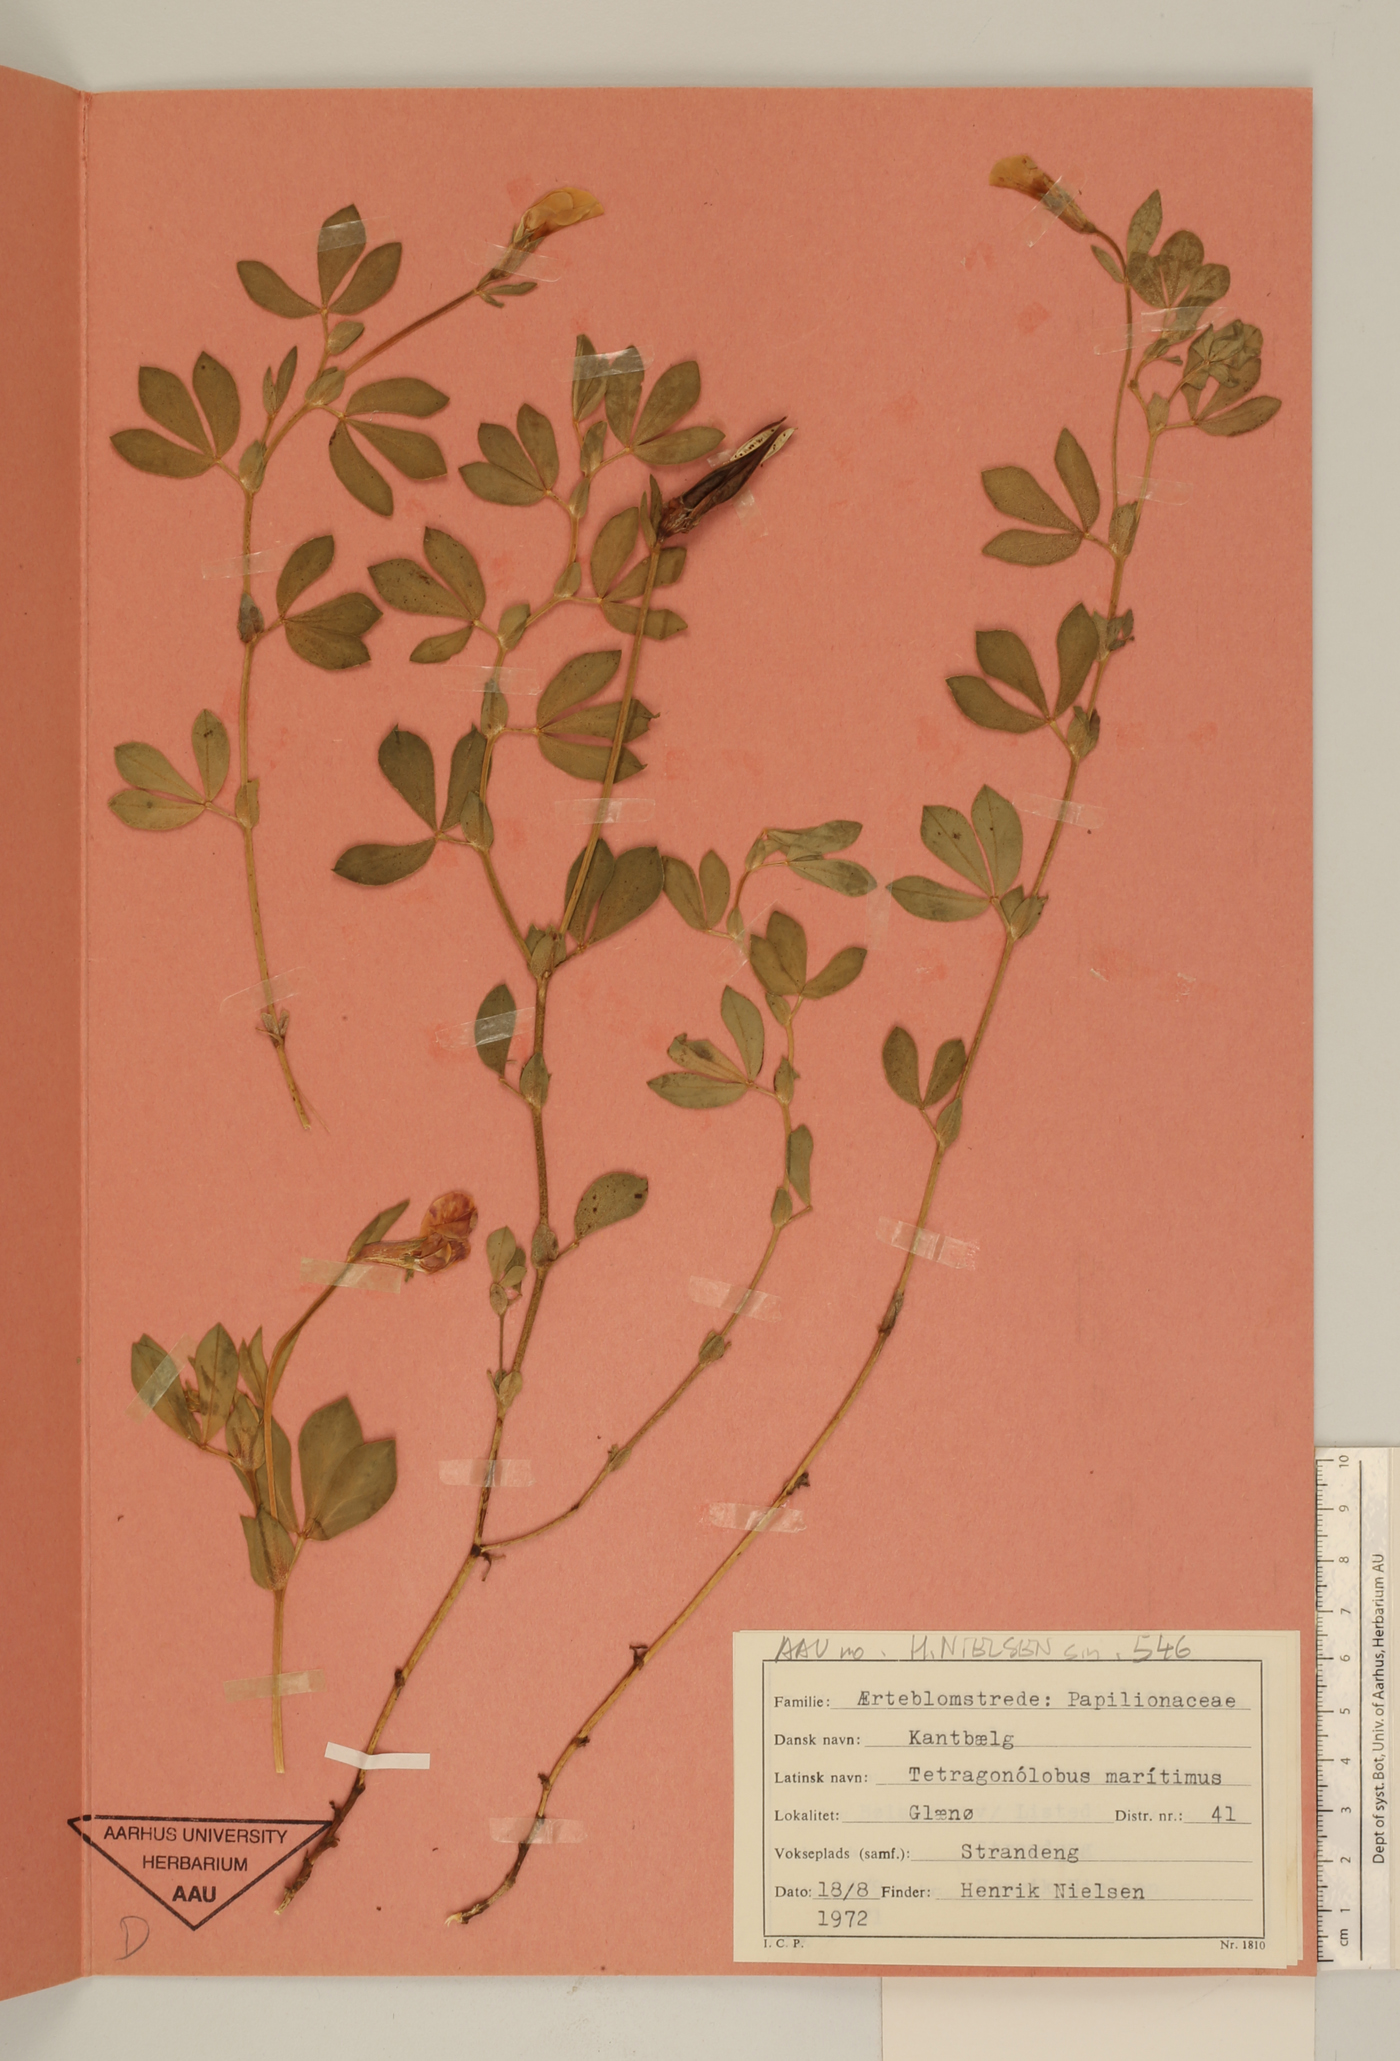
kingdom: Plantae
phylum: Tracheophyta
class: Magnoliopsida
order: Fabales
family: Fabaceae
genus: Lotus
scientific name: Lotus maritimus
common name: Dragon's-teeth
